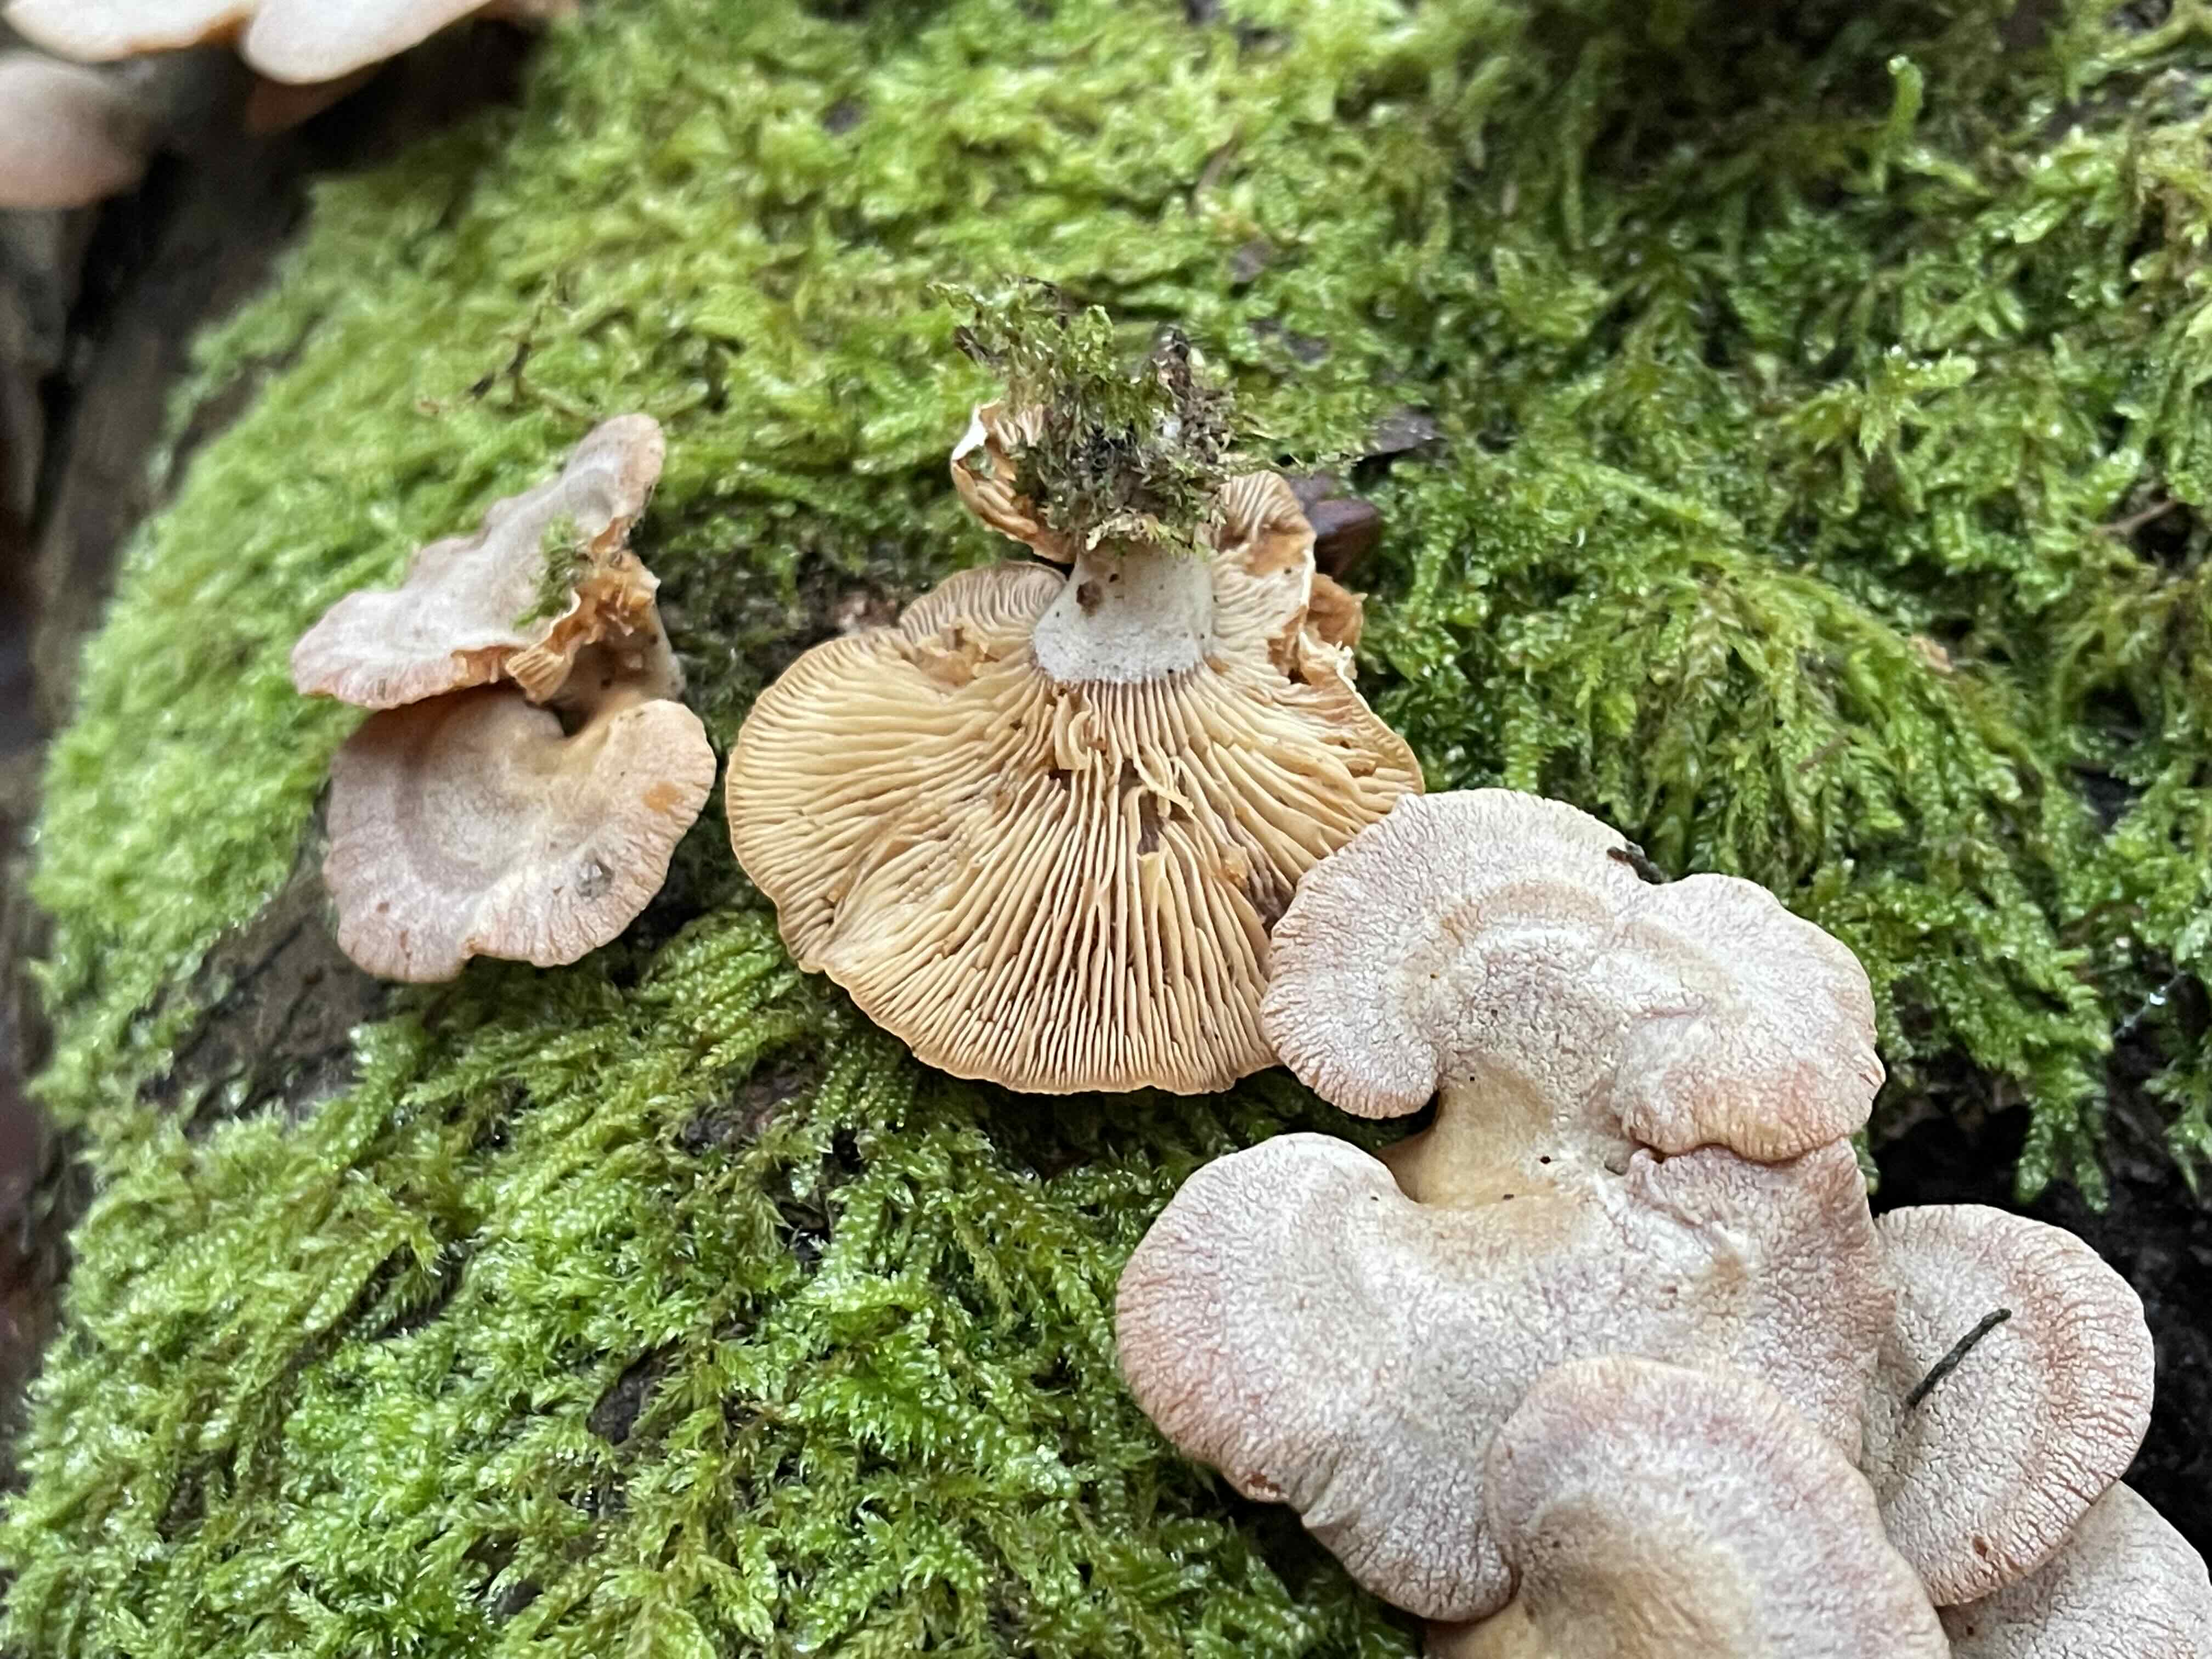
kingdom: Fungi
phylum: Basidiomycota
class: Agaricomycetes
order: Agaricales
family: Mycenaceae
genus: Panellus
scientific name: Panellus stipticus
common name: kliddet epaulethat
